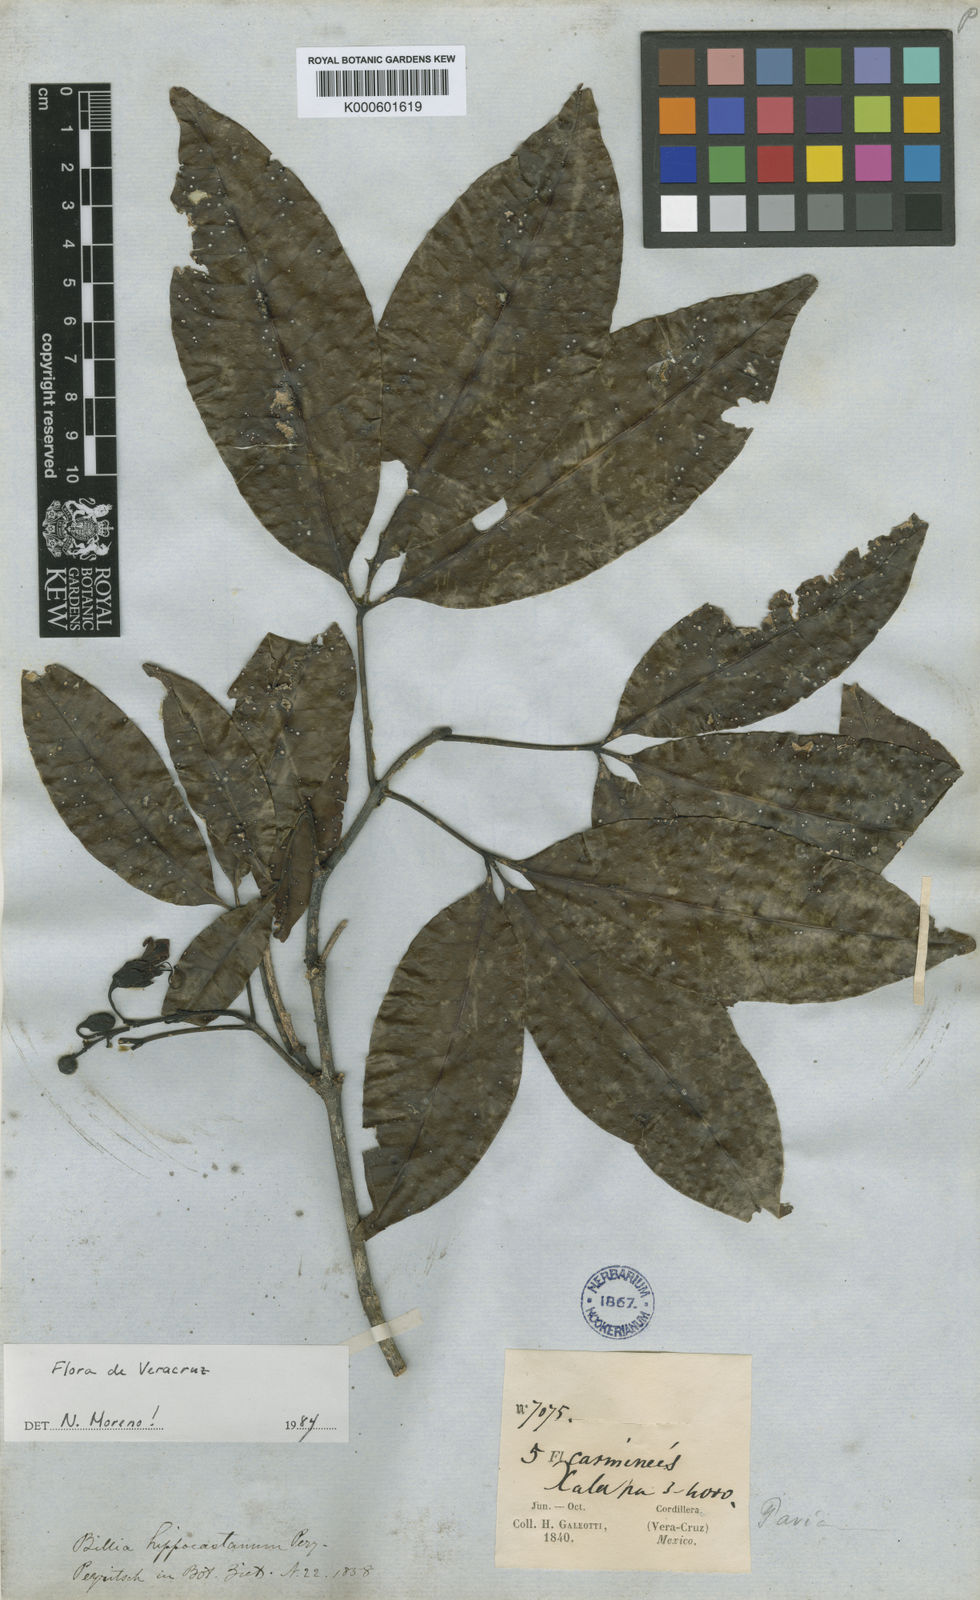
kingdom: Plantae
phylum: Tracheophyta
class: Magnoliopsida
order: Sapindales
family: Sapindaceae
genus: Billia
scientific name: Billia rosea
